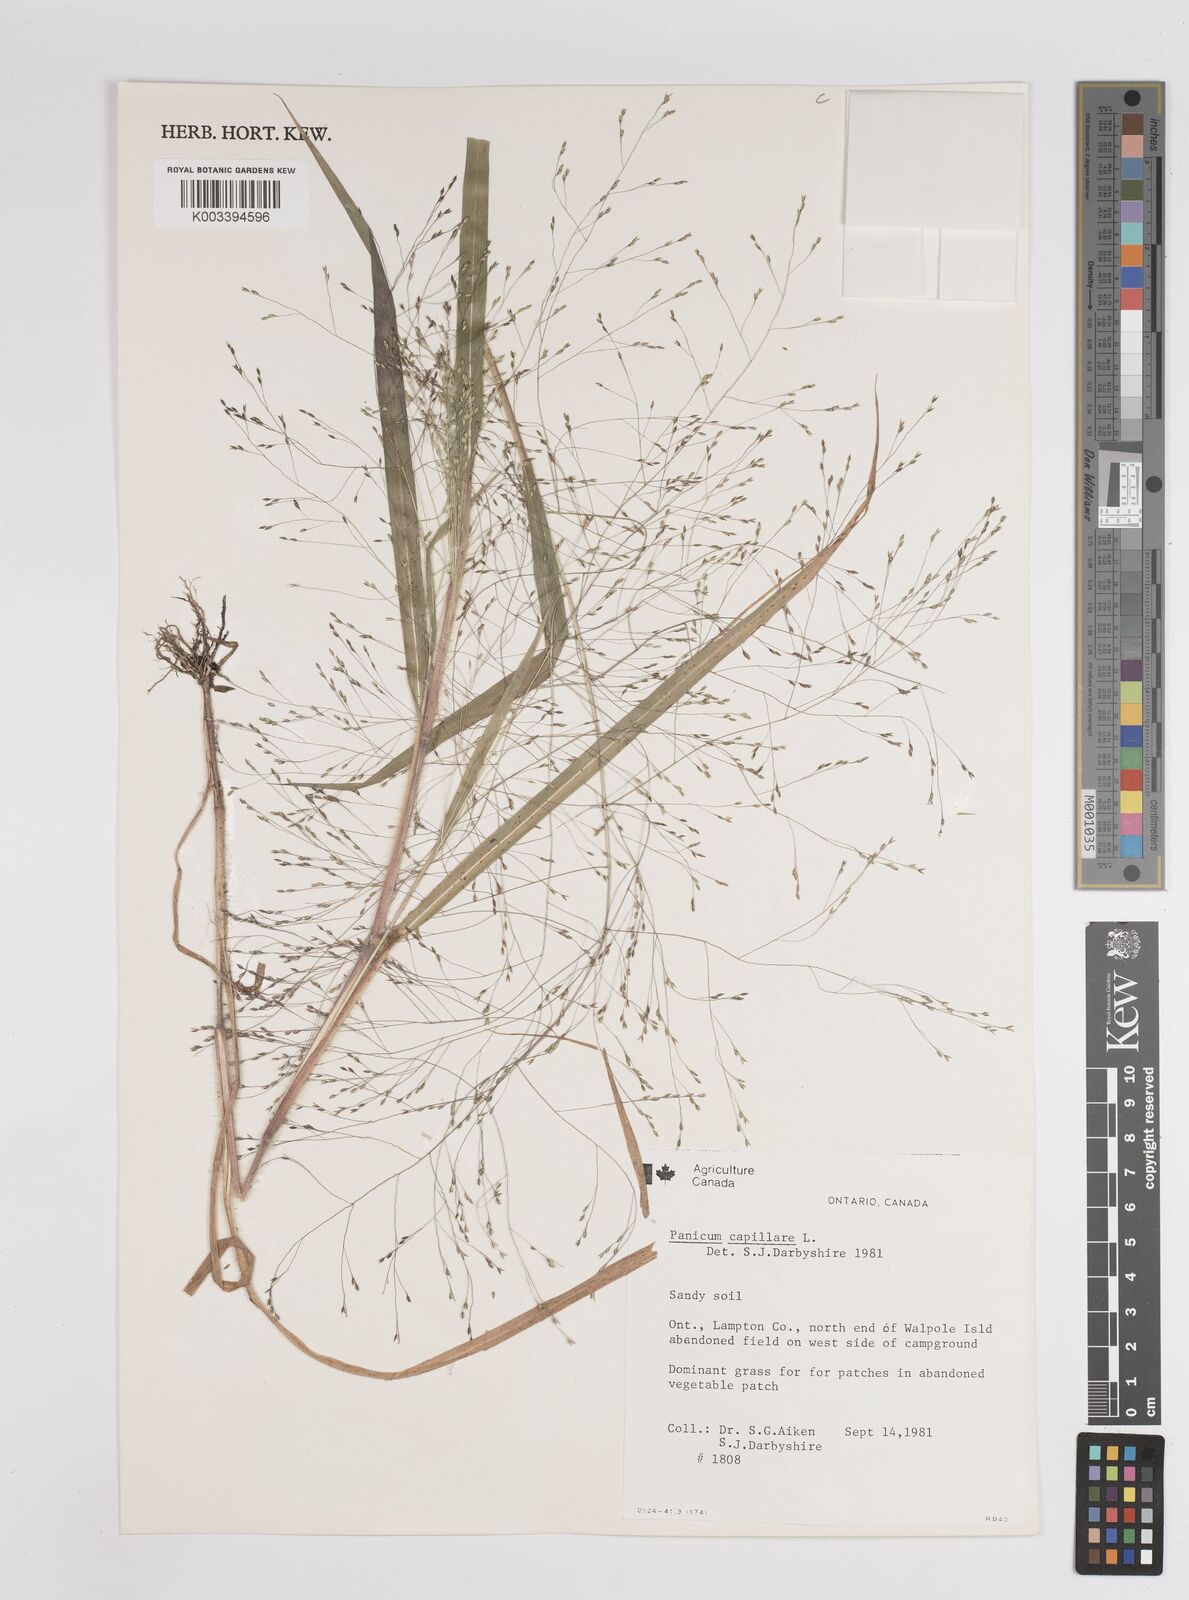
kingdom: Plantae
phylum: Tracheophyta
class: Liliopsida
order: Poales
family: Poaceae
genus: Panicum
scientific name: Panicum capillare
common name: Witch-grass
